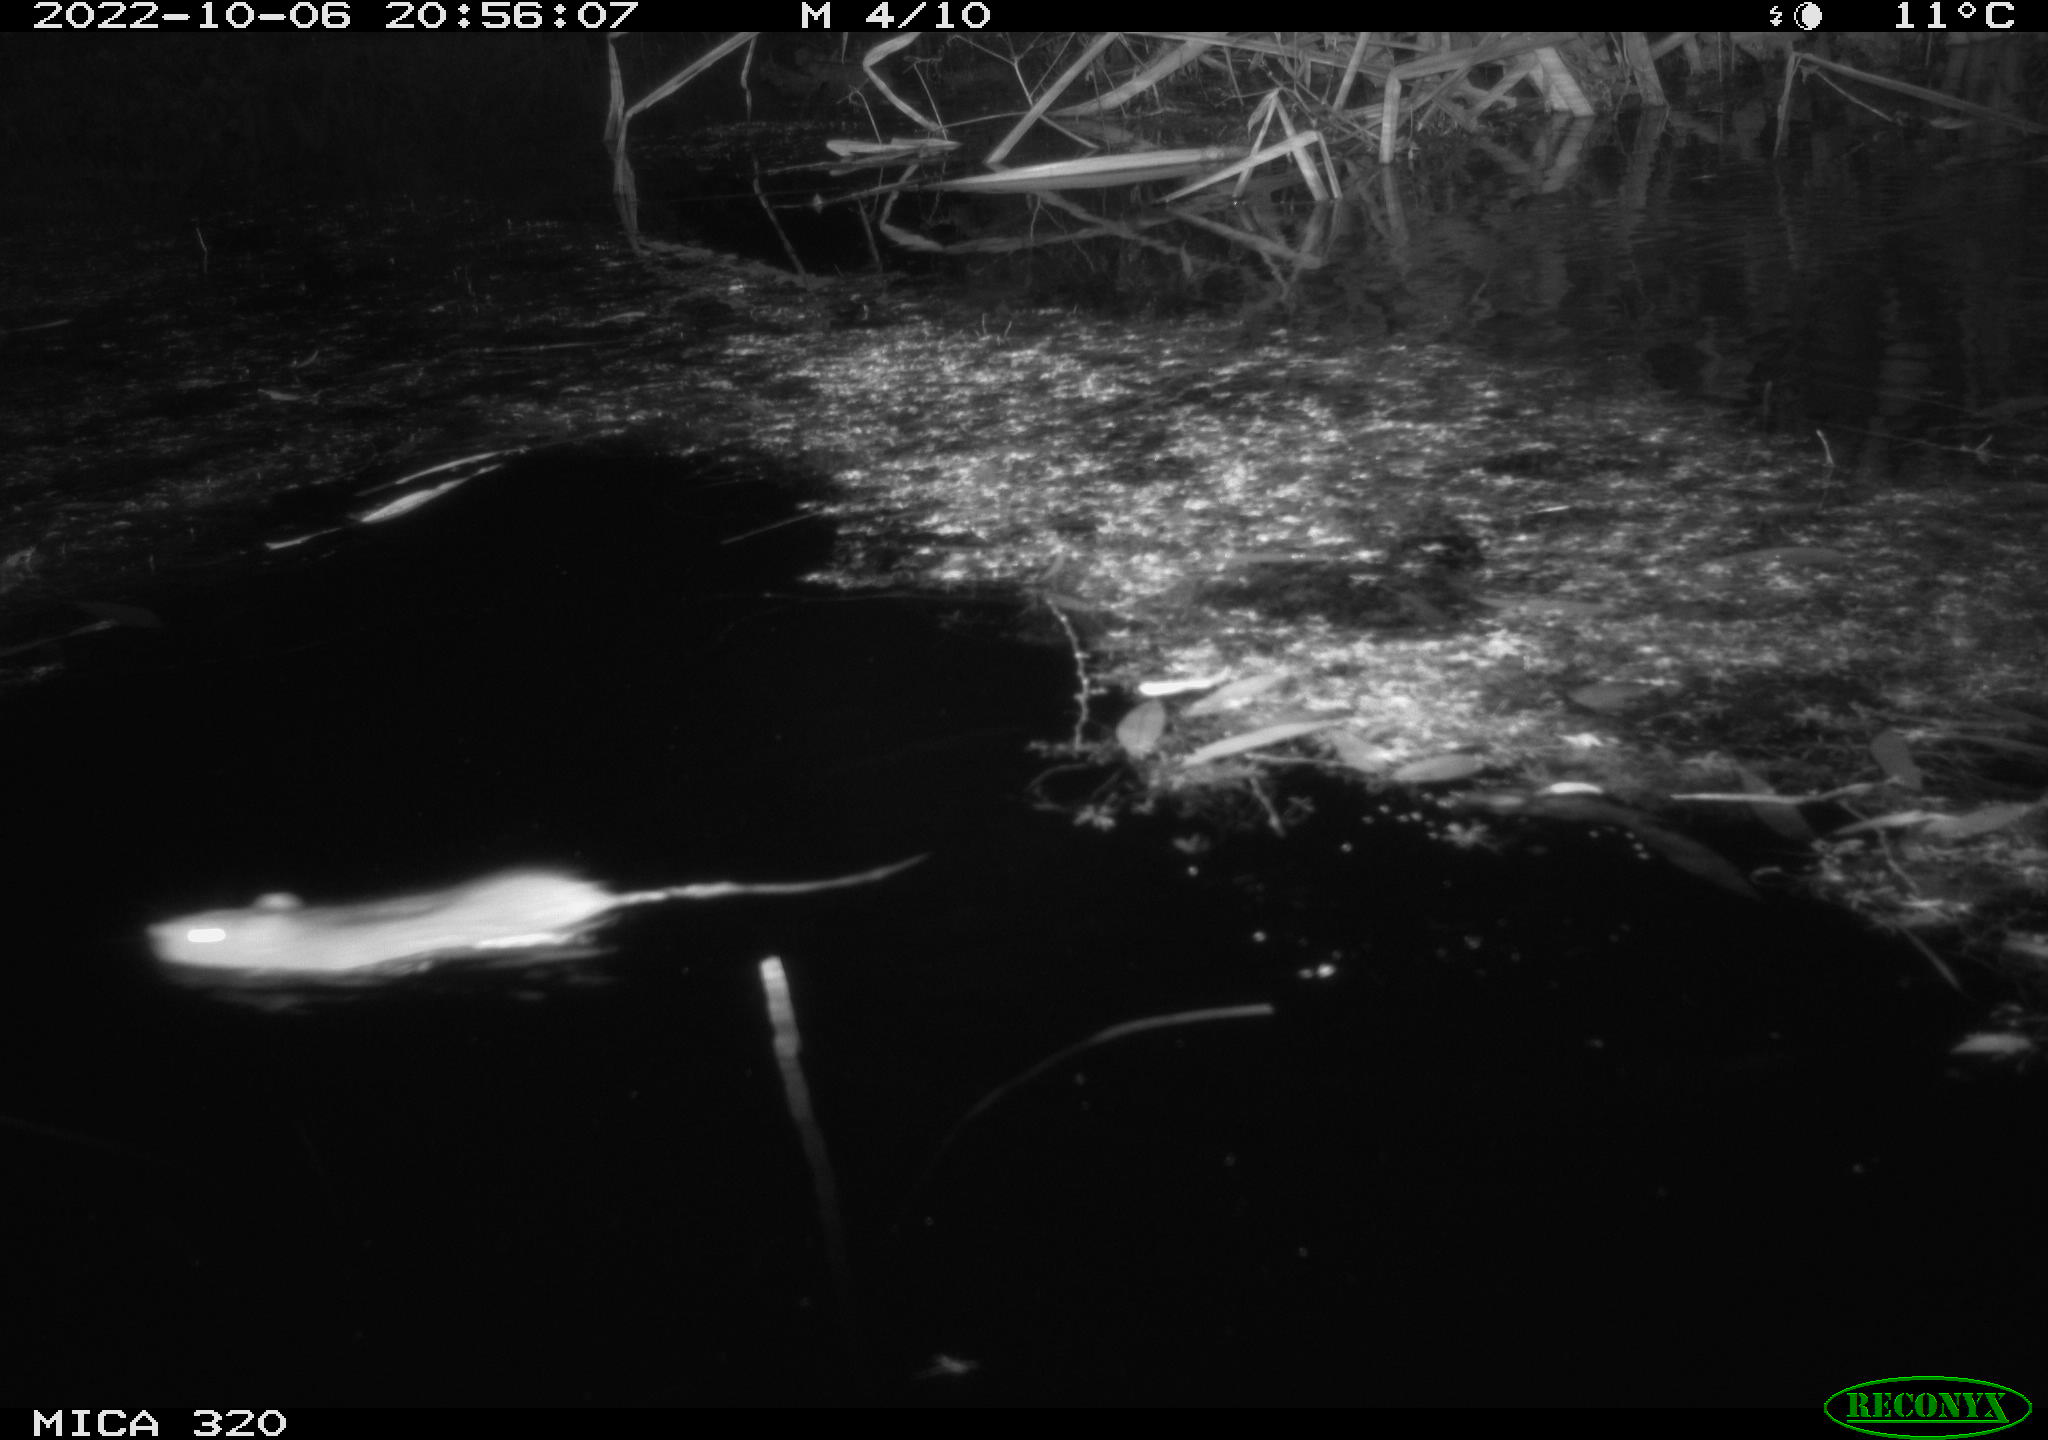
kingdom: Animalia
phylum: Chordata
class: Mammalia
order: Rodentia
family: Muridae
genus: Rattus
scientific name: Rattus norvegicus
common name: Brown rat
